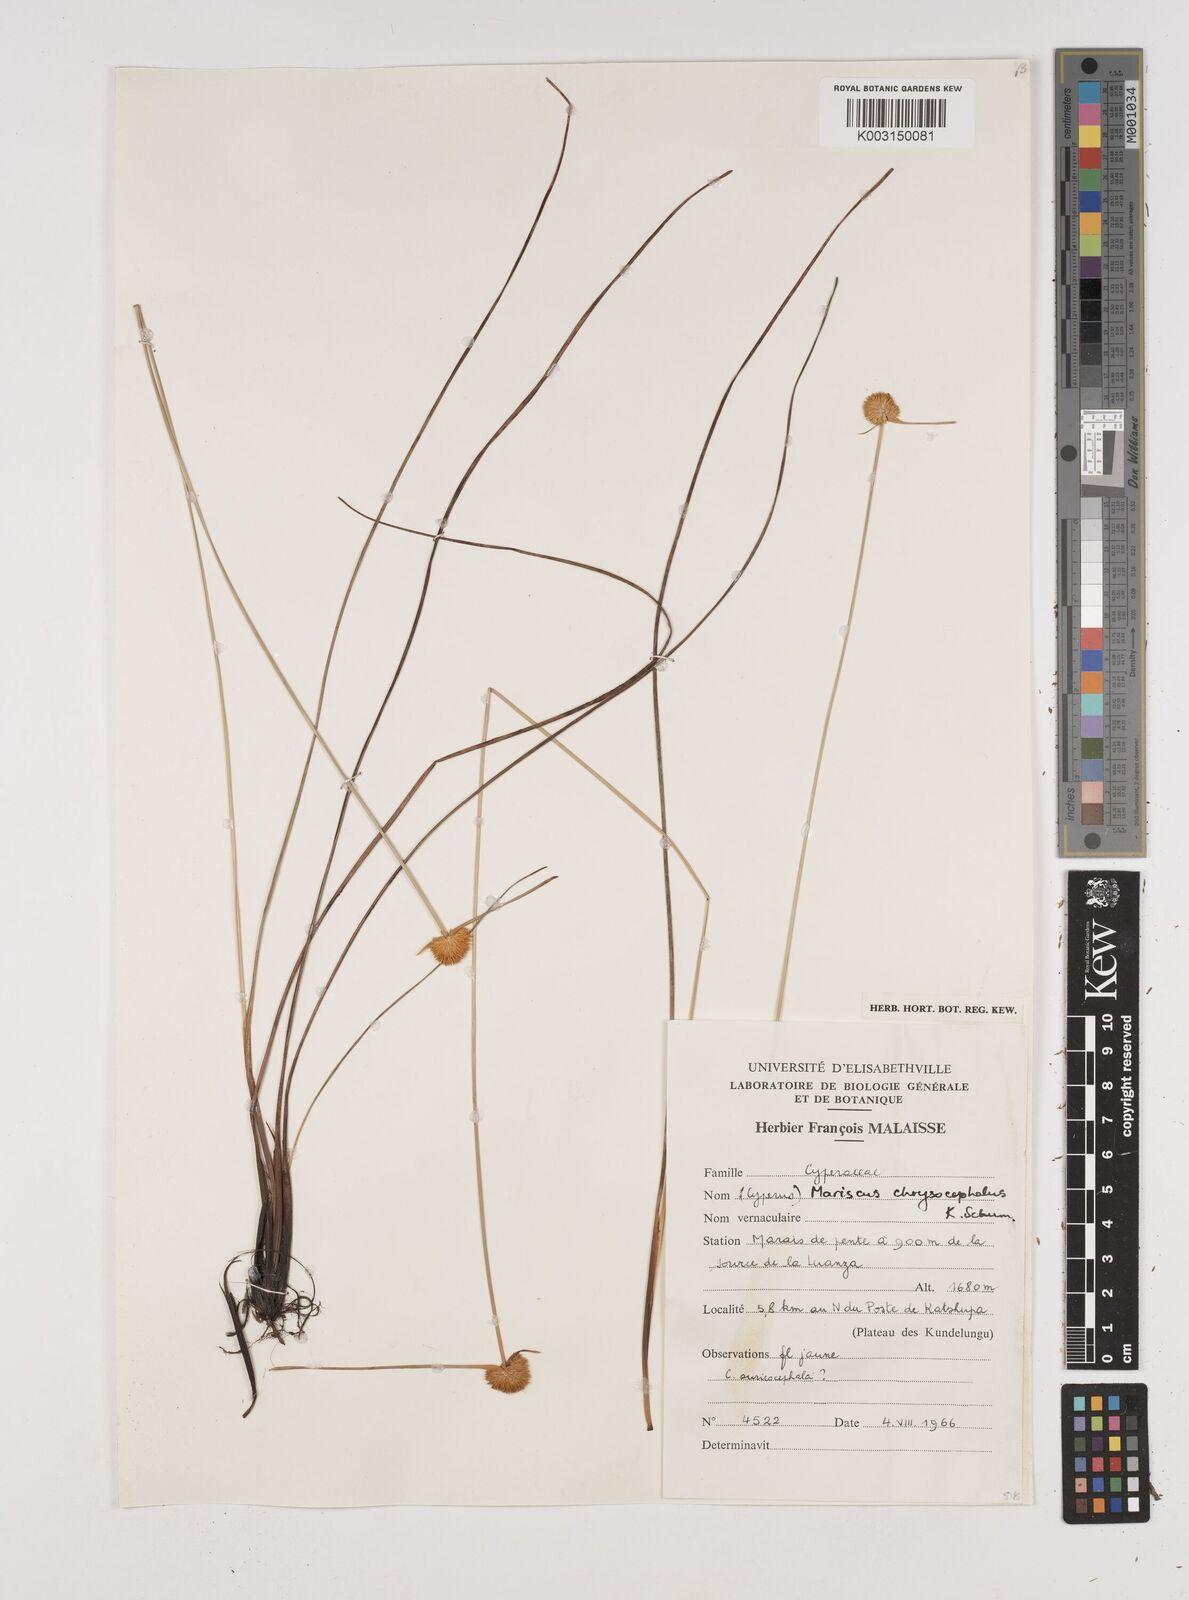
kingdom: Plantae
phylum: Tracheophyta
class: Liliopsida
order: Poales
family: Cyperaceae
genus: Cyperus
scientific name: Cyperus chrysocephalus
